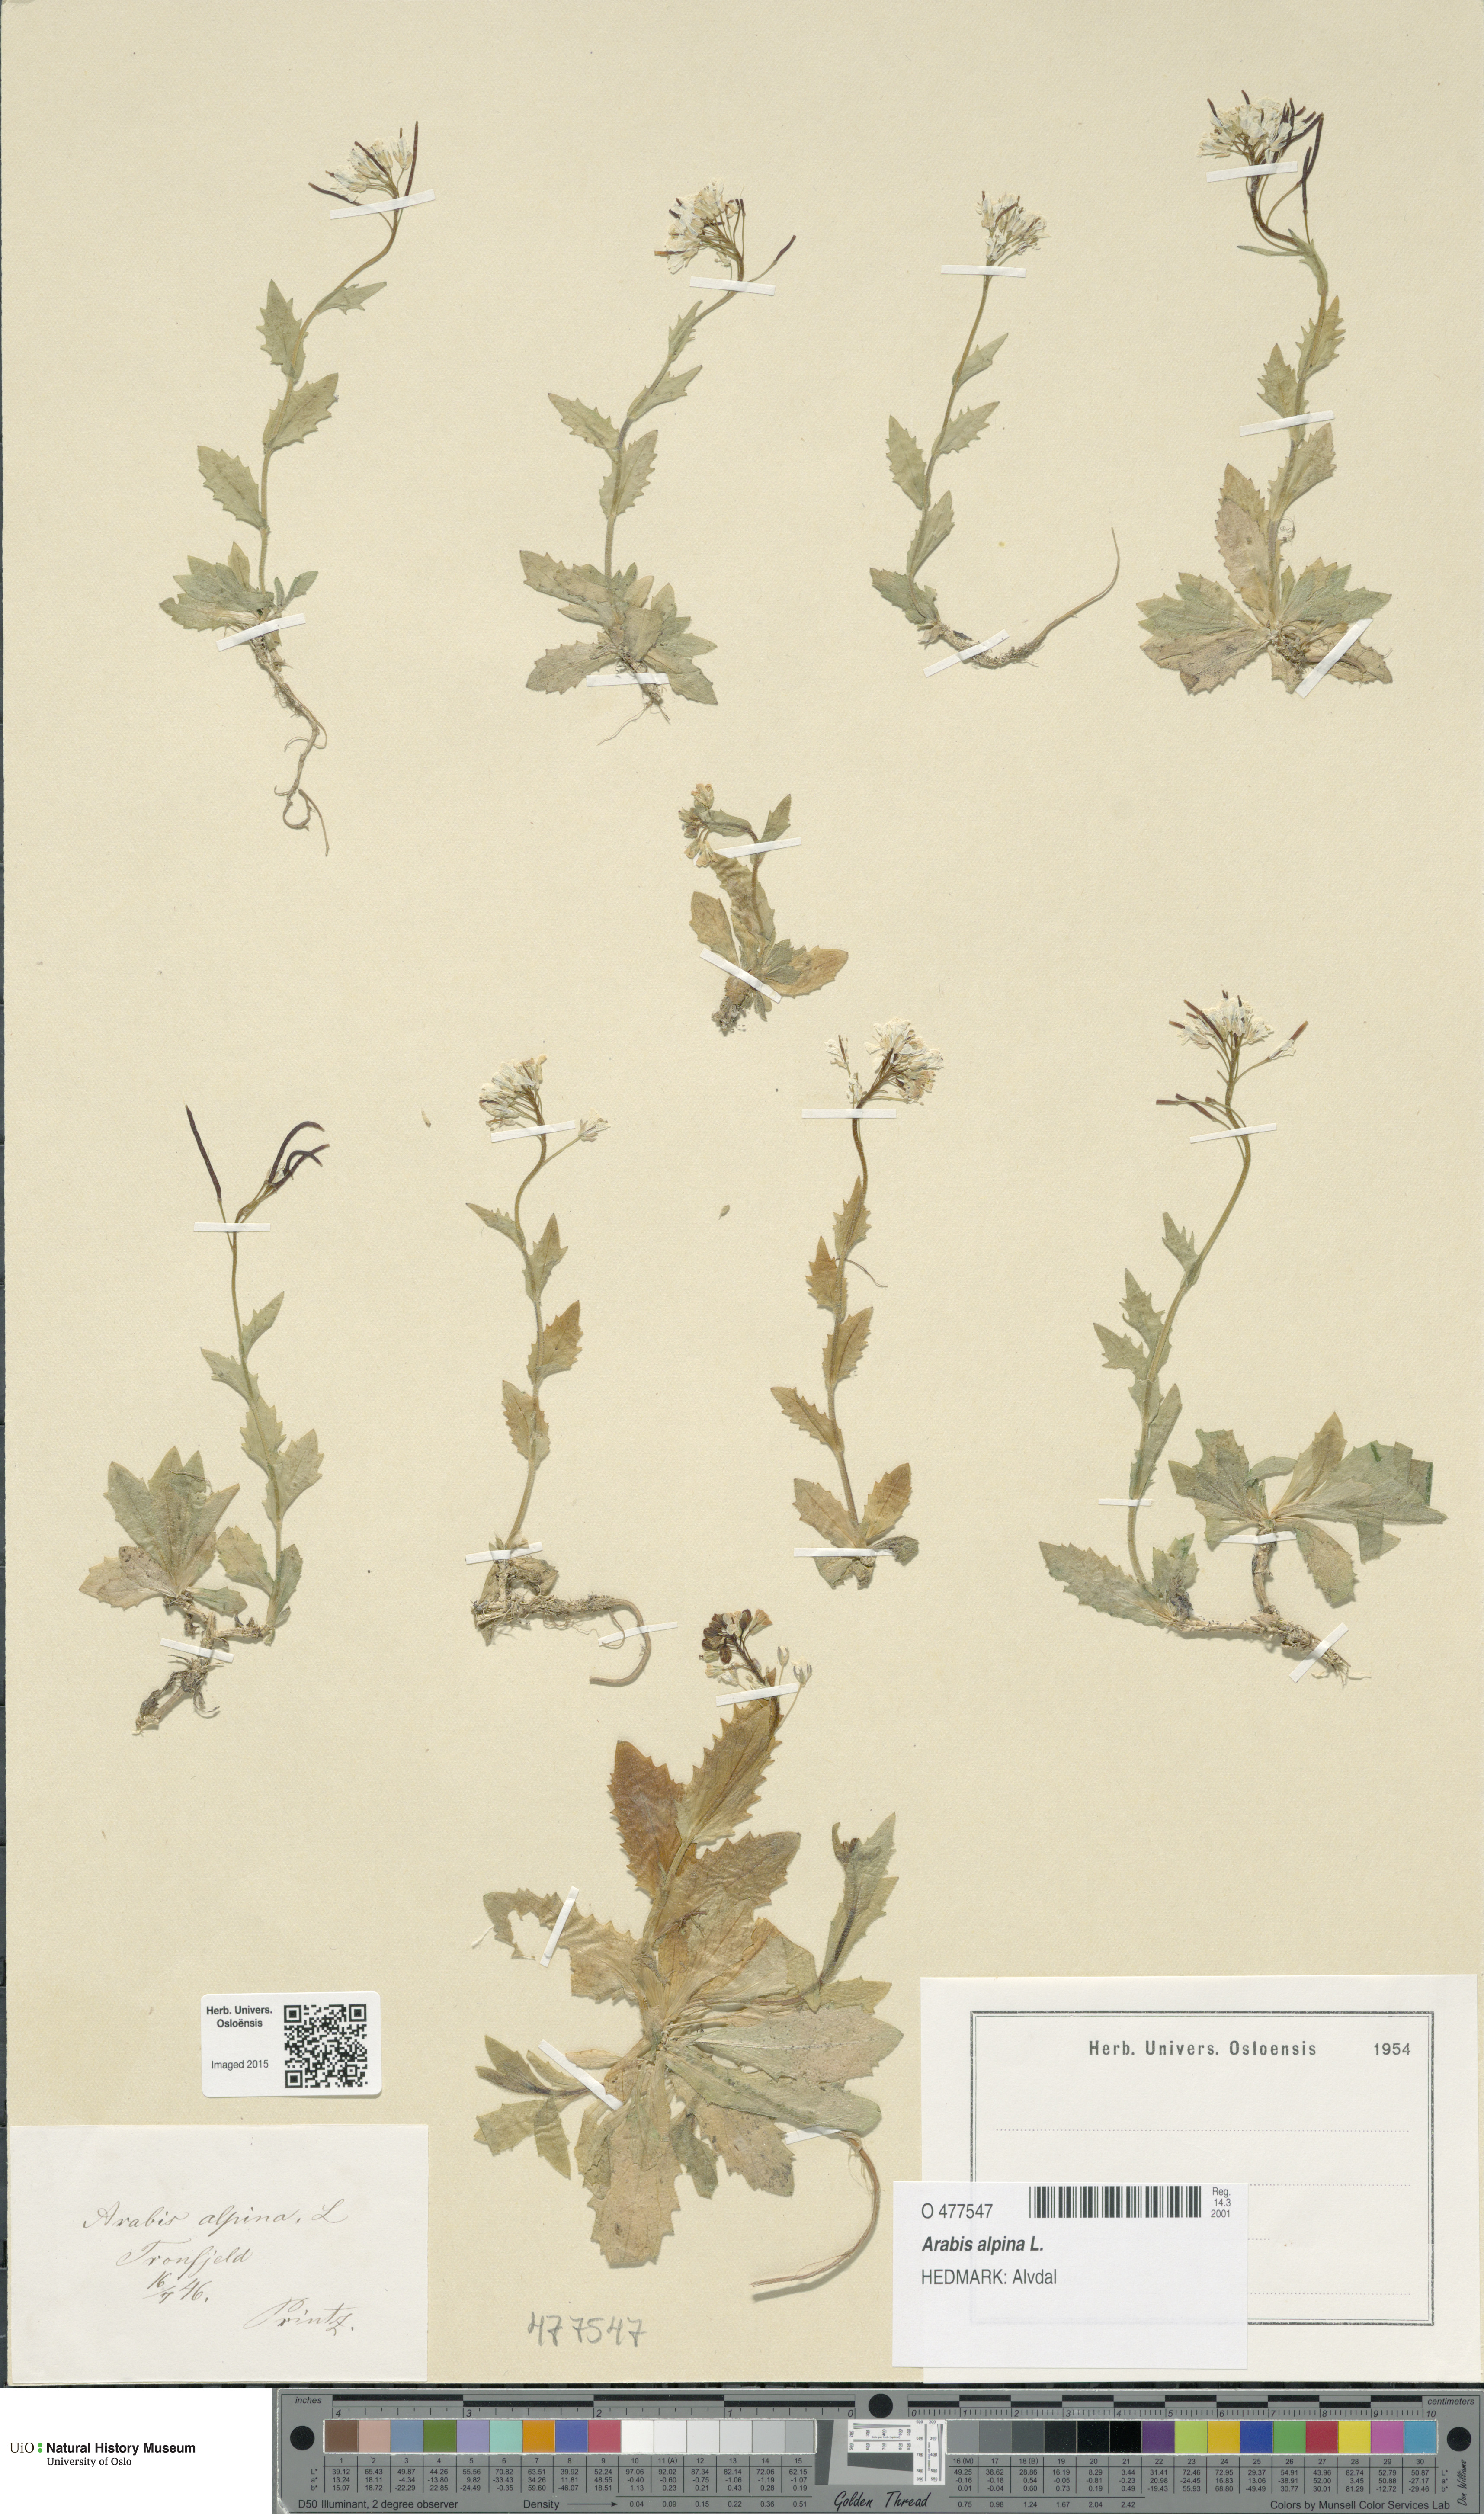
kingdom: Plantae
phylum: Tracheophyta
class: Magnoliopsida
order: Brassicales
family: Brassicaceae
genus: Arabis
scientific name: Arabis alpina
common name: Alpine rock-cress
